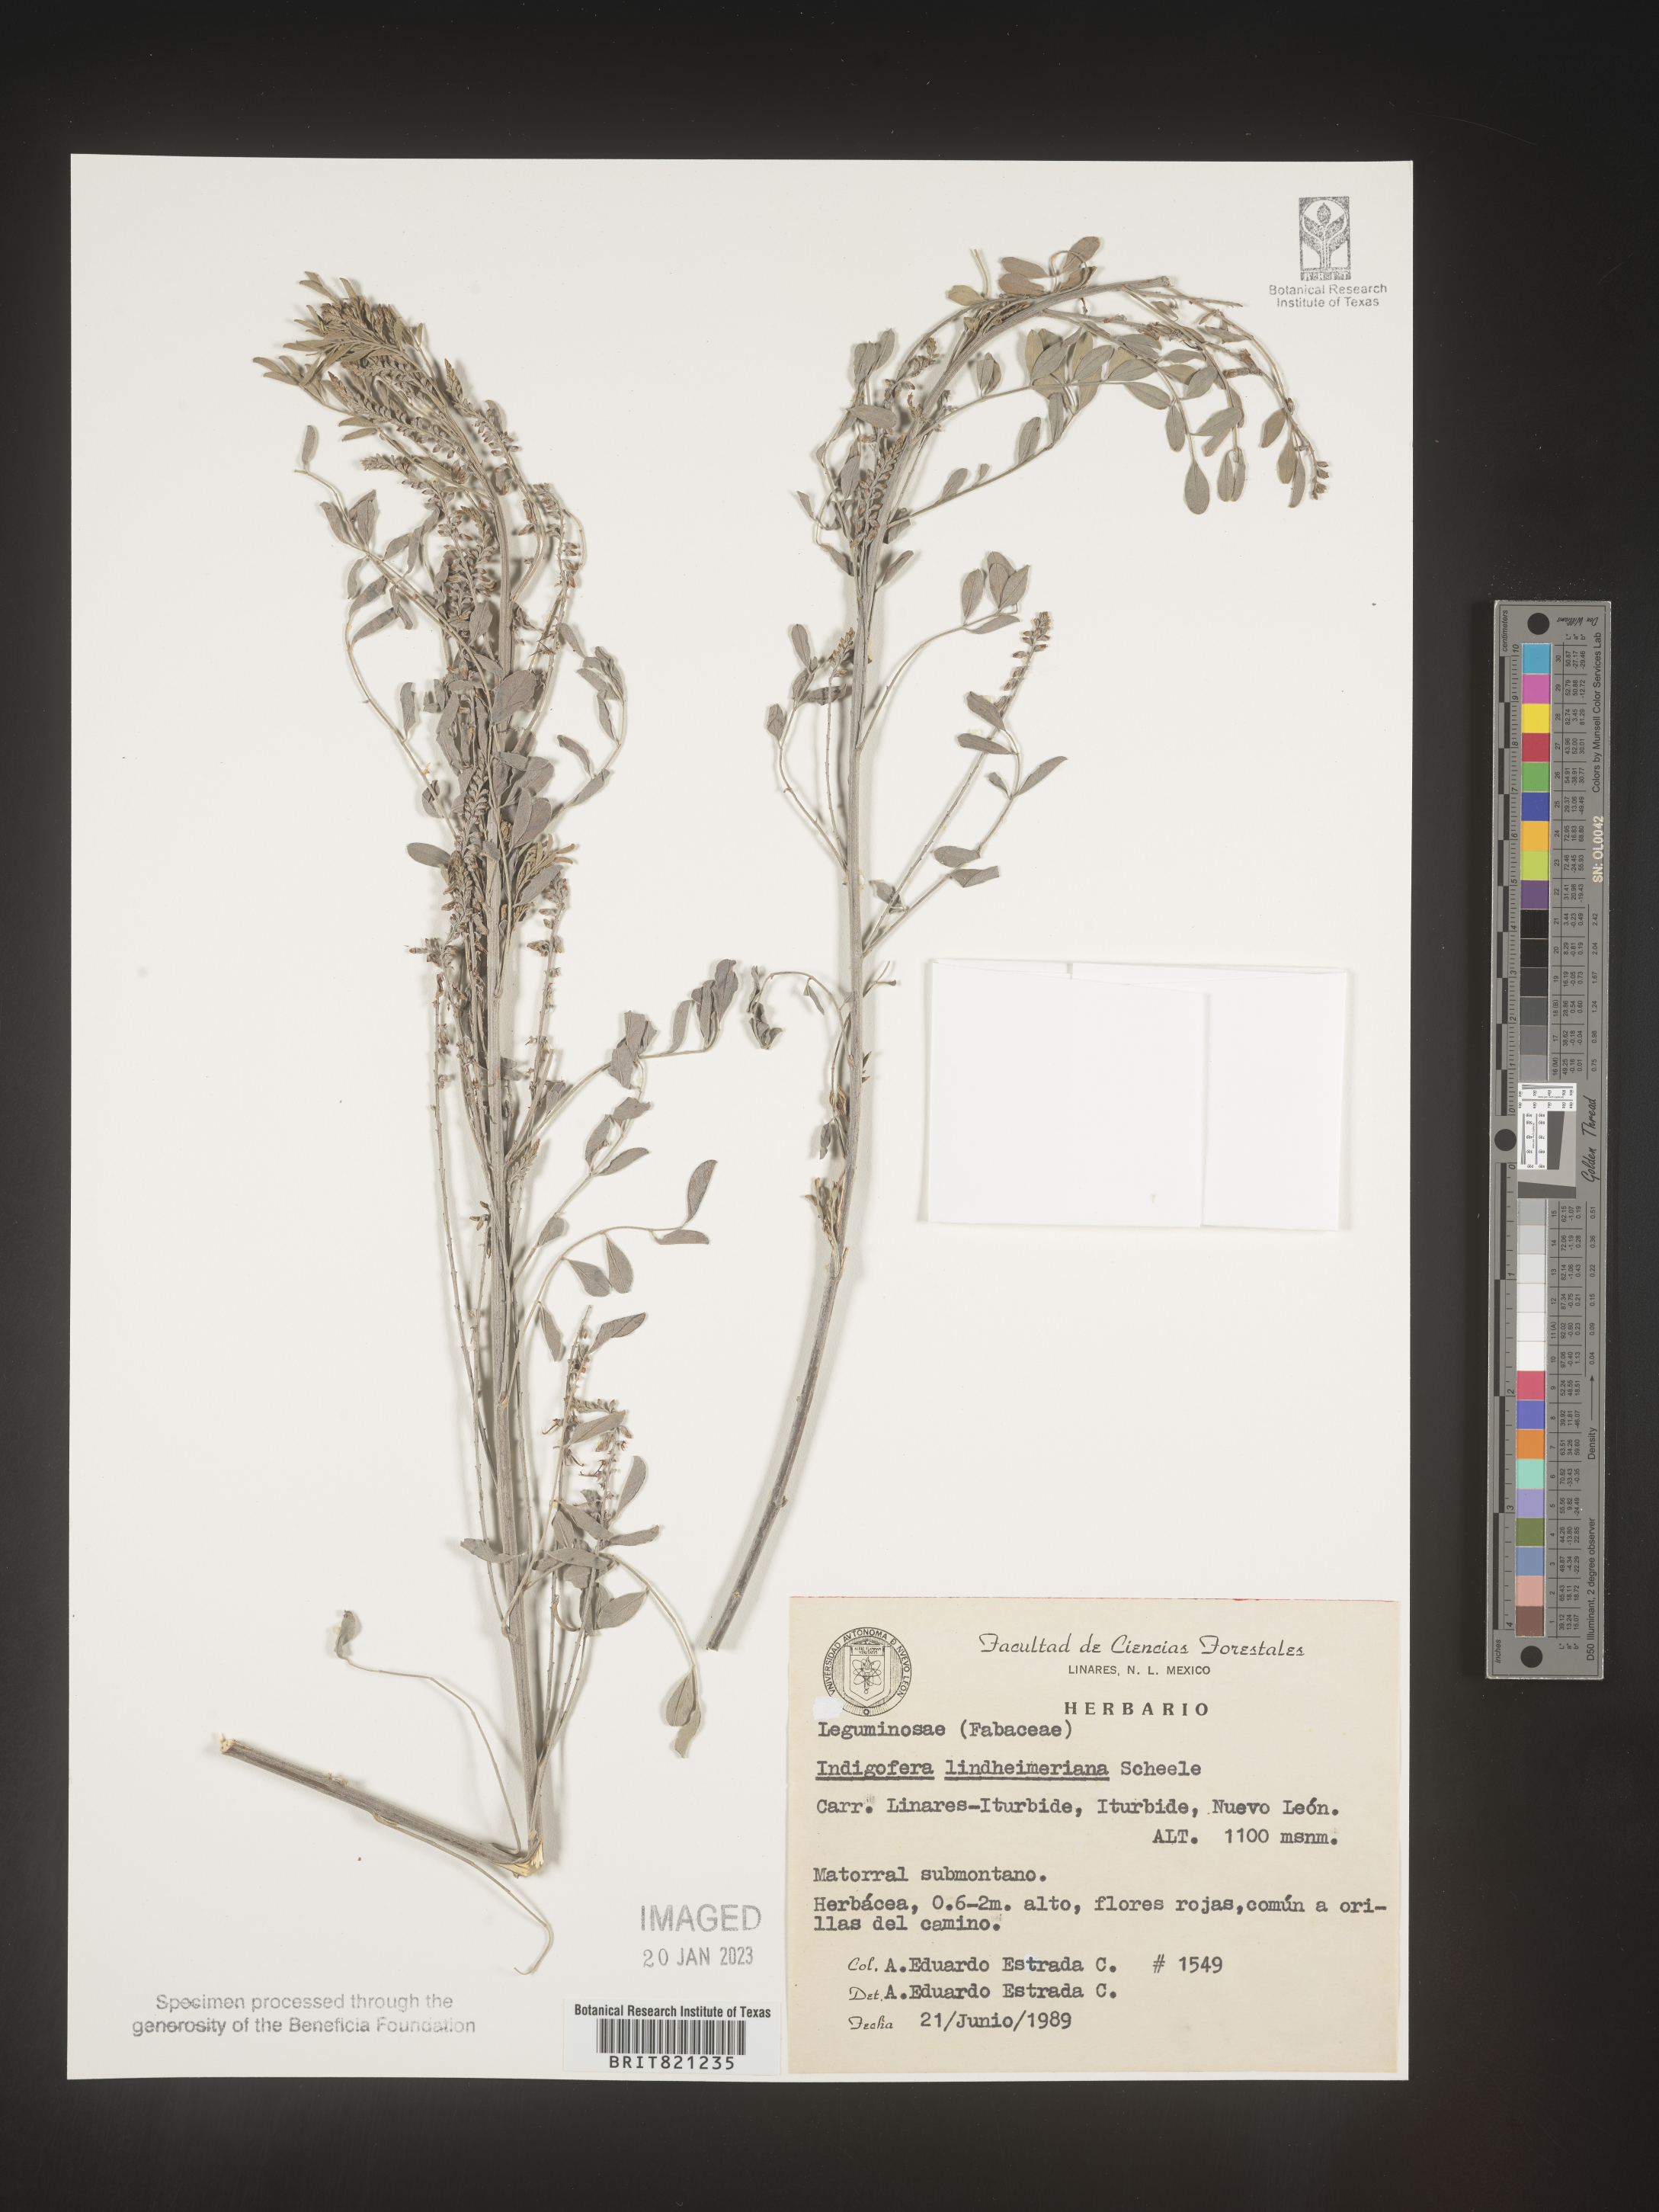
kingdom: Plantae
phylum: Tracheophyta
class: Magnoliopsida
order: Fabales
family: Fabaceae
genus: Indigofera
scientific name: Indigofera
